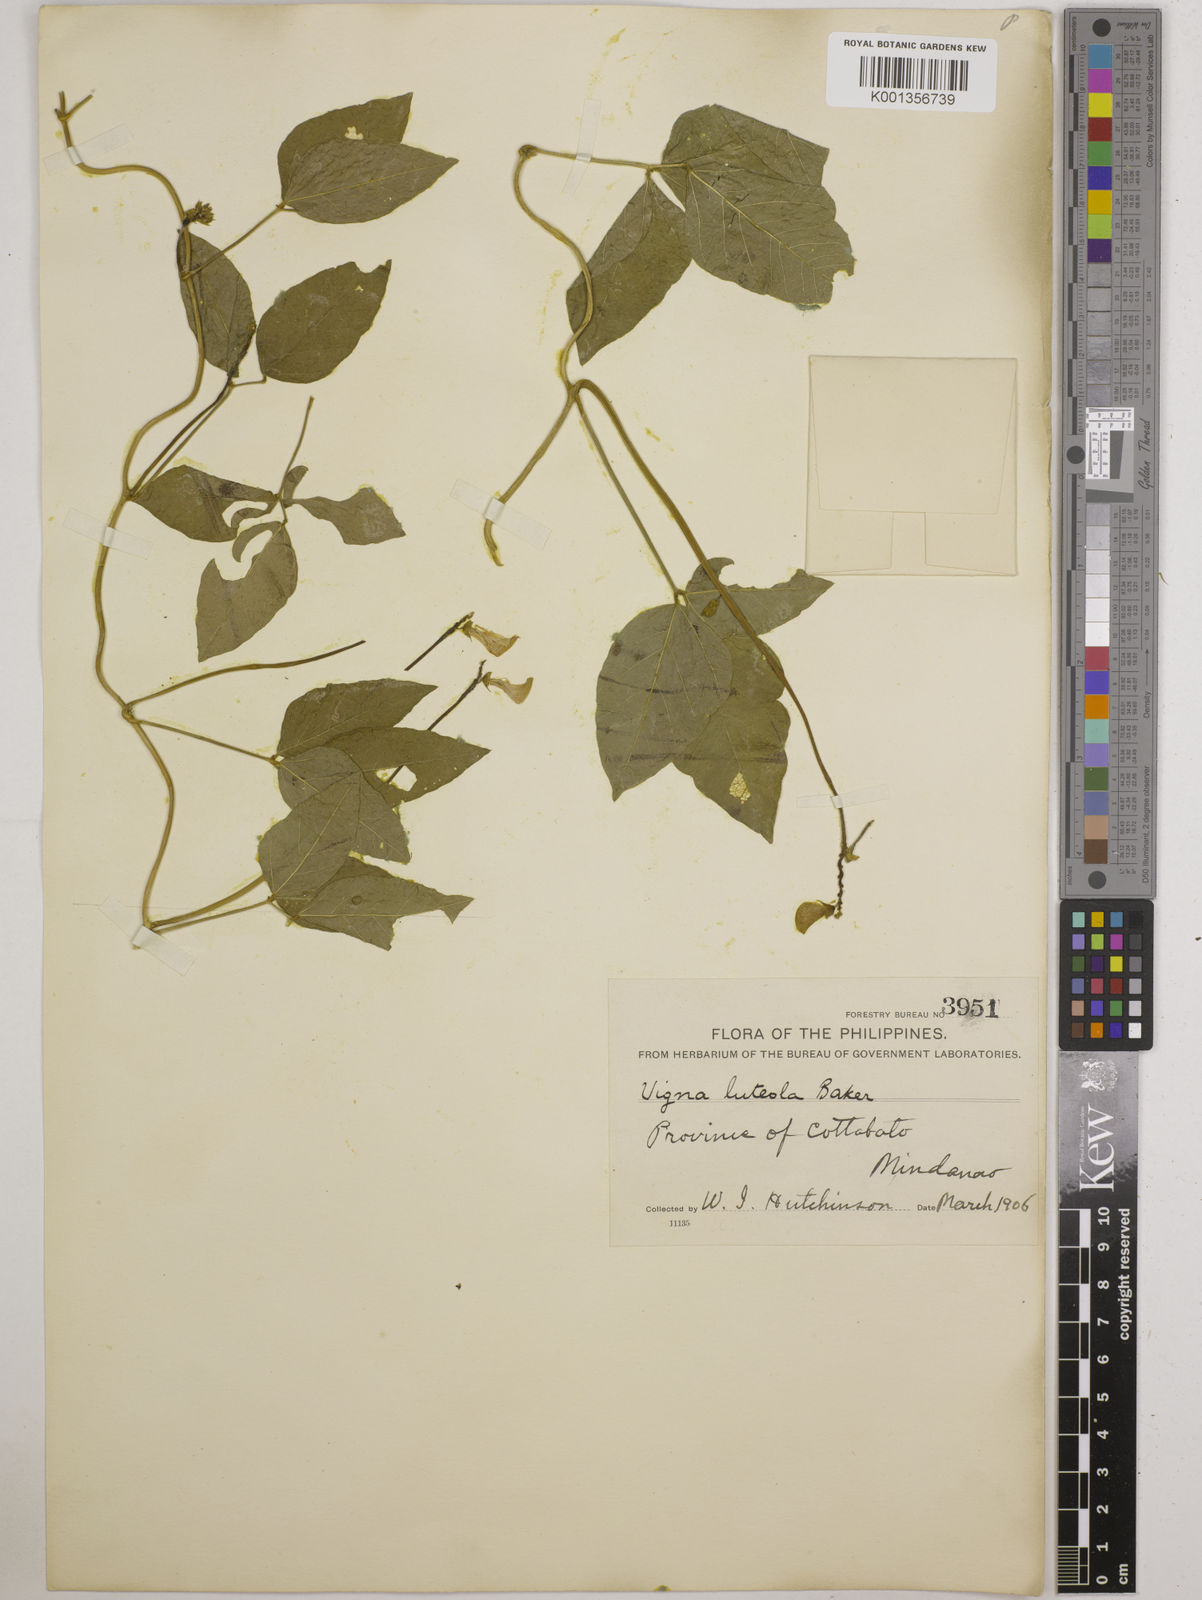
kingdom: Plantae
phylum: Tracheophyta
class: Magnoliopsida
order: Fabales
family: Fabaceae
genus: Vigna
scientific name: Vigna luteola
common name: Hairypod cowpea
